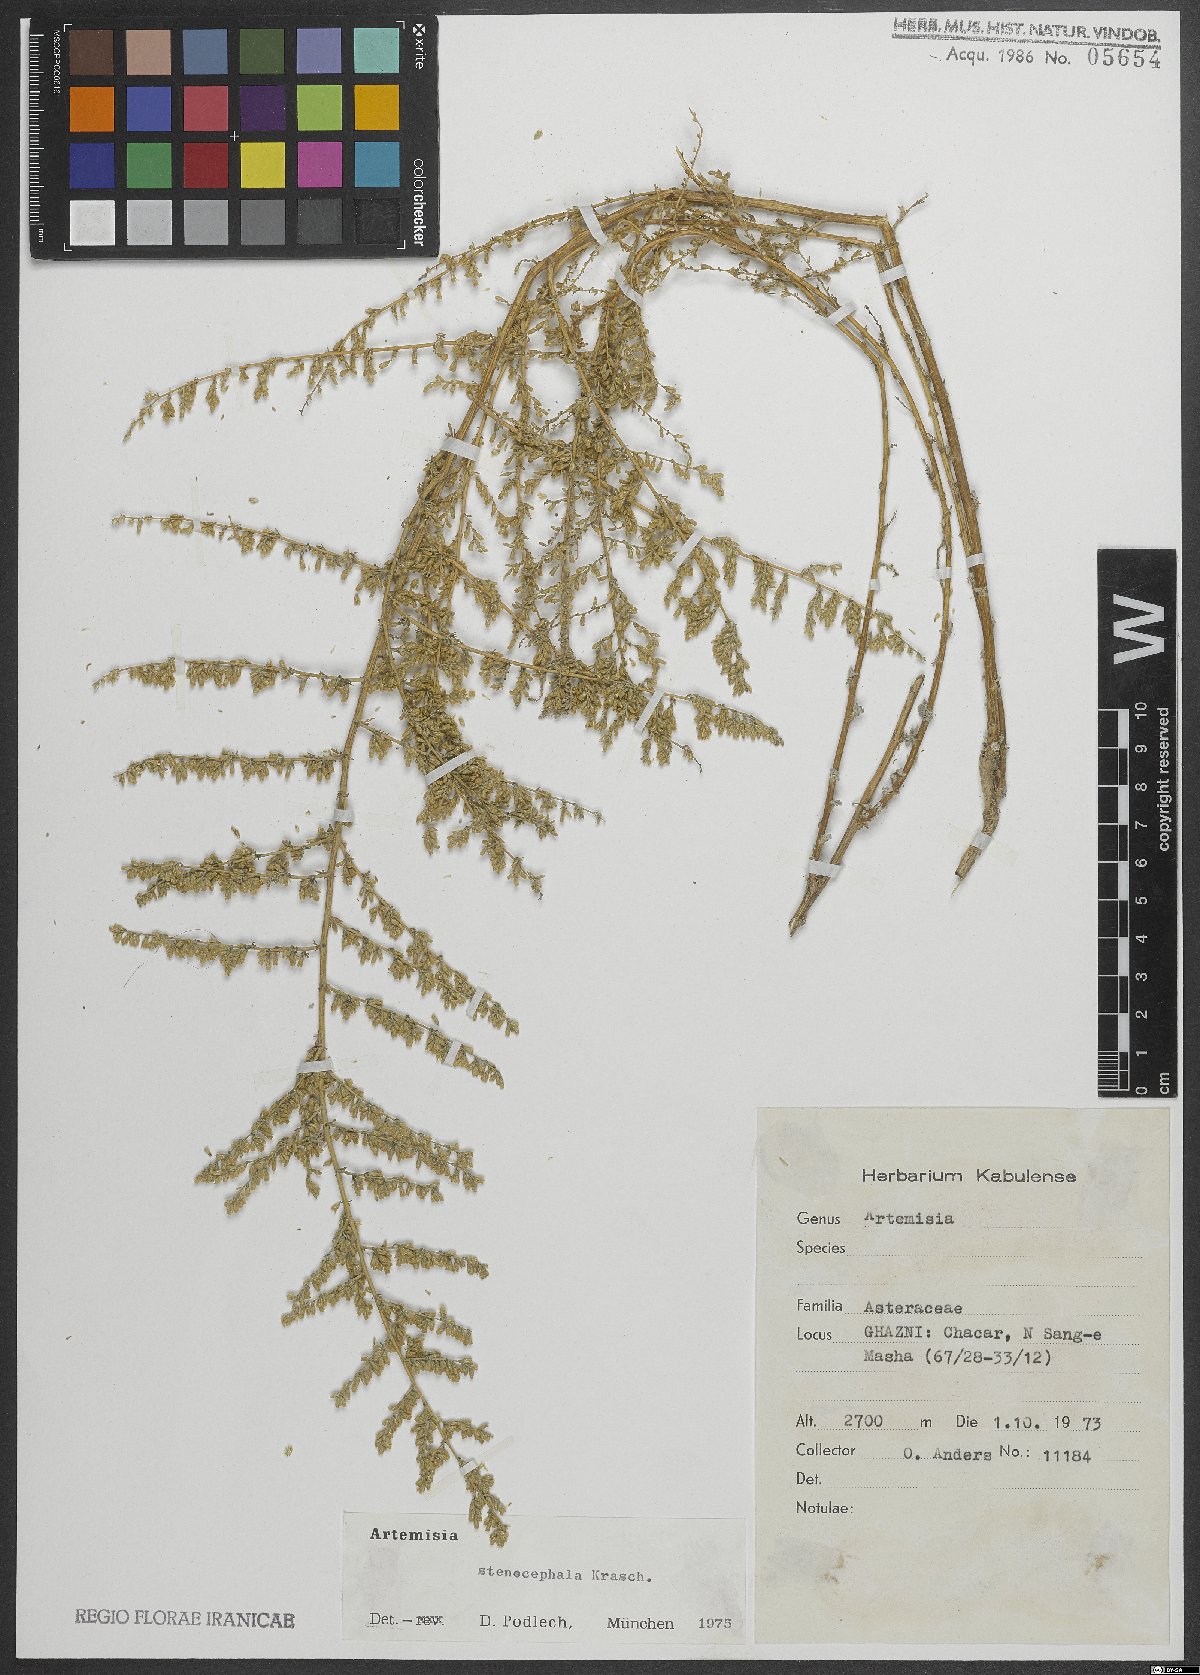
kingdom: Plantae
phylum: Tracheophyta
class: Magnoliopsida
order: Asterales
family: Asteraceae
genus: Artemisia
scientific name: Artemisia stenocephala
